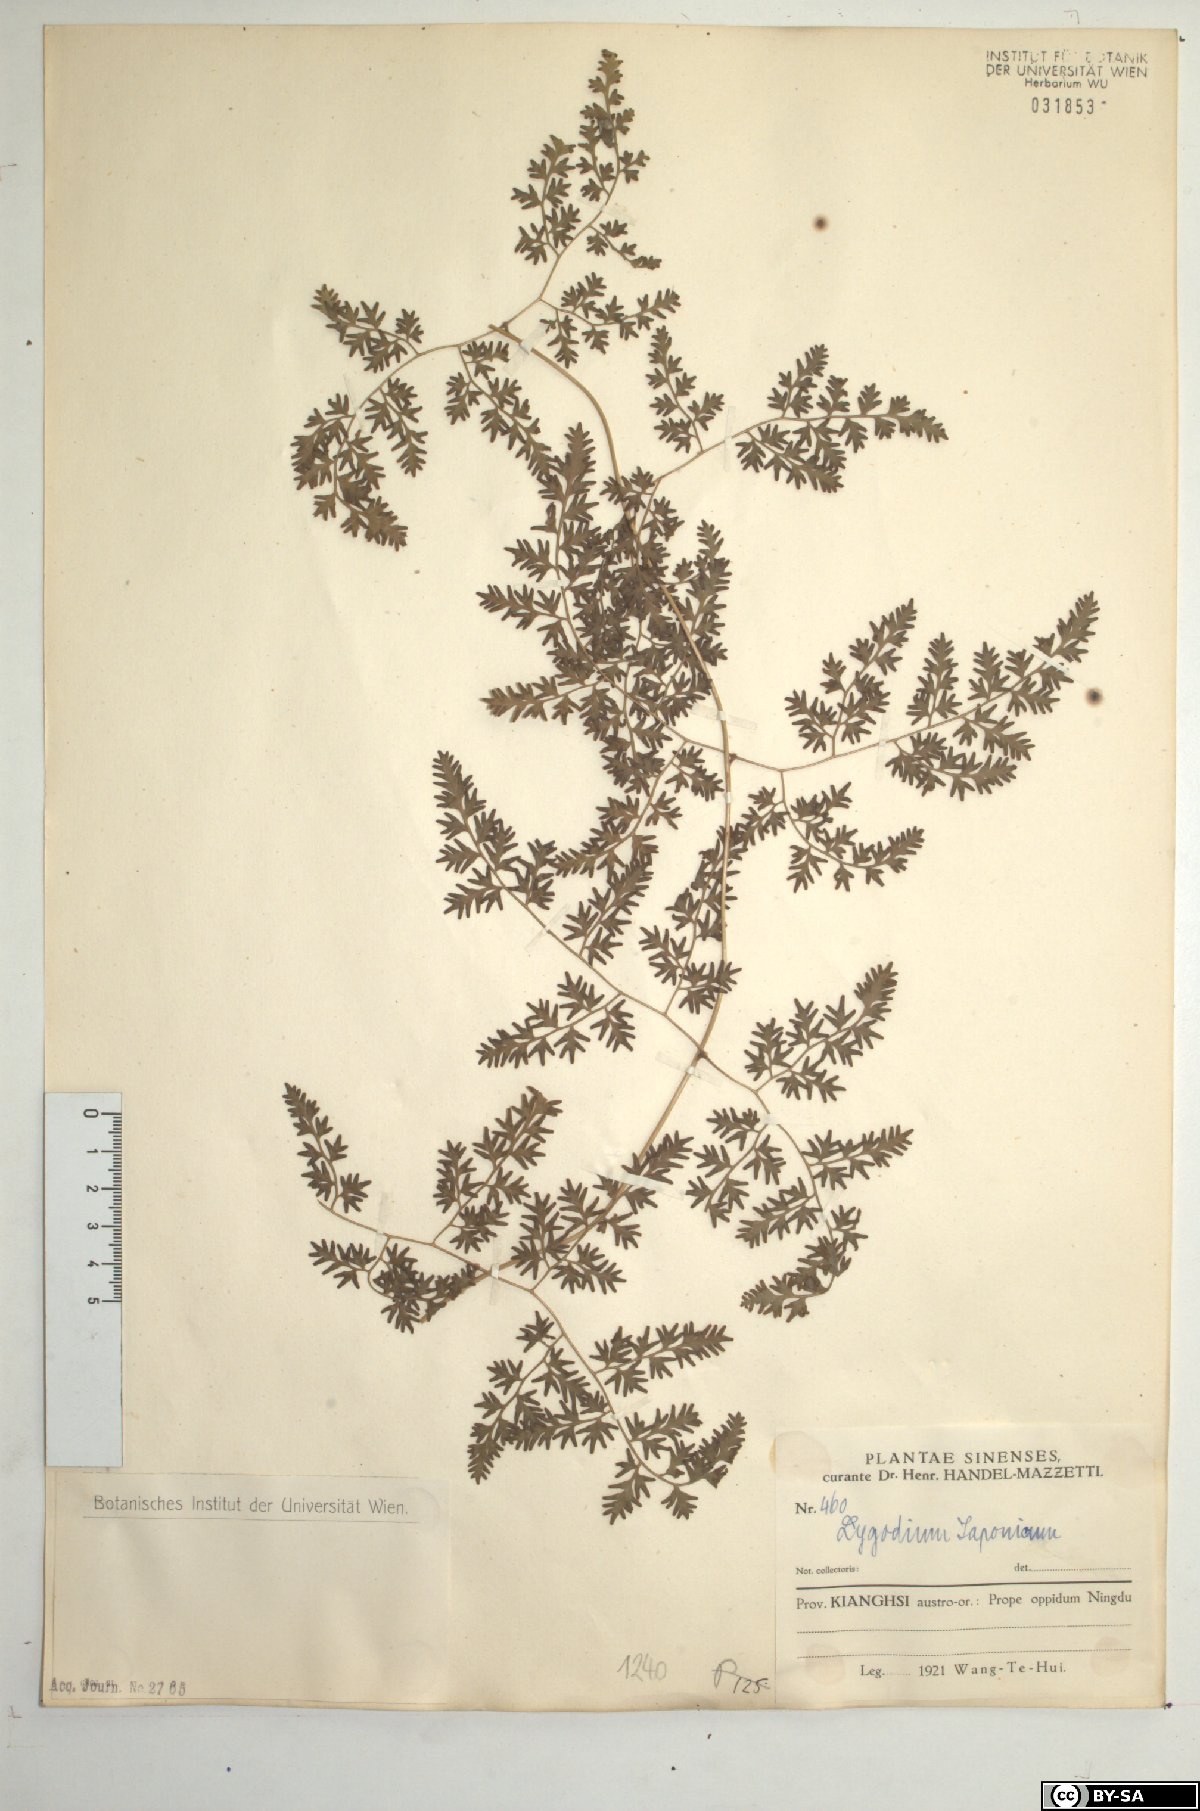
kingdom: Plantae
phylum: Tracheophyta
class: Polypodiopsida
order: Schizaeales
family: Lygodiaceae
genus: Lygodium
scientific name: Lygodium japonicum
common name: Japanese climbing fern
